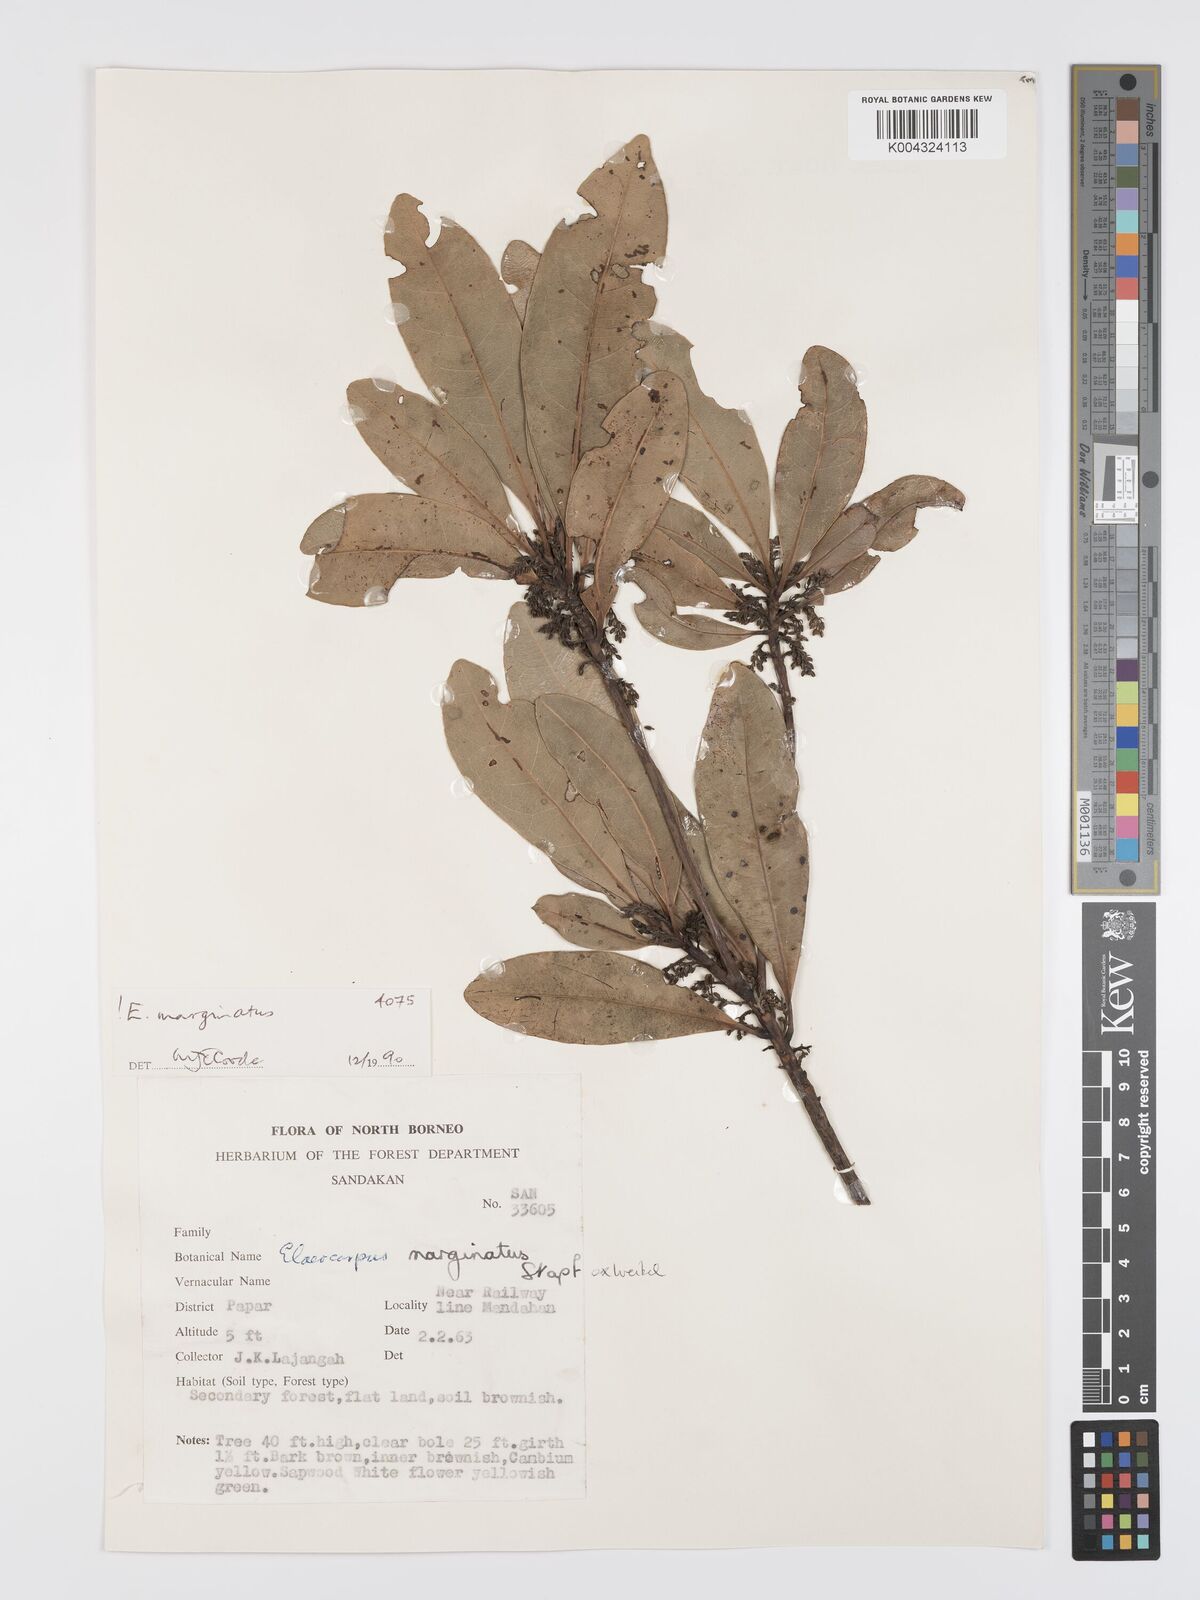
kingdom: Plantae
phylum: Tracheophyta
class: Magnoliopsida
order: Oxalidales
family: Elaeocarpaceae
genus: Elaeocarpus
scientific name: Elaeocarpus marginatus
